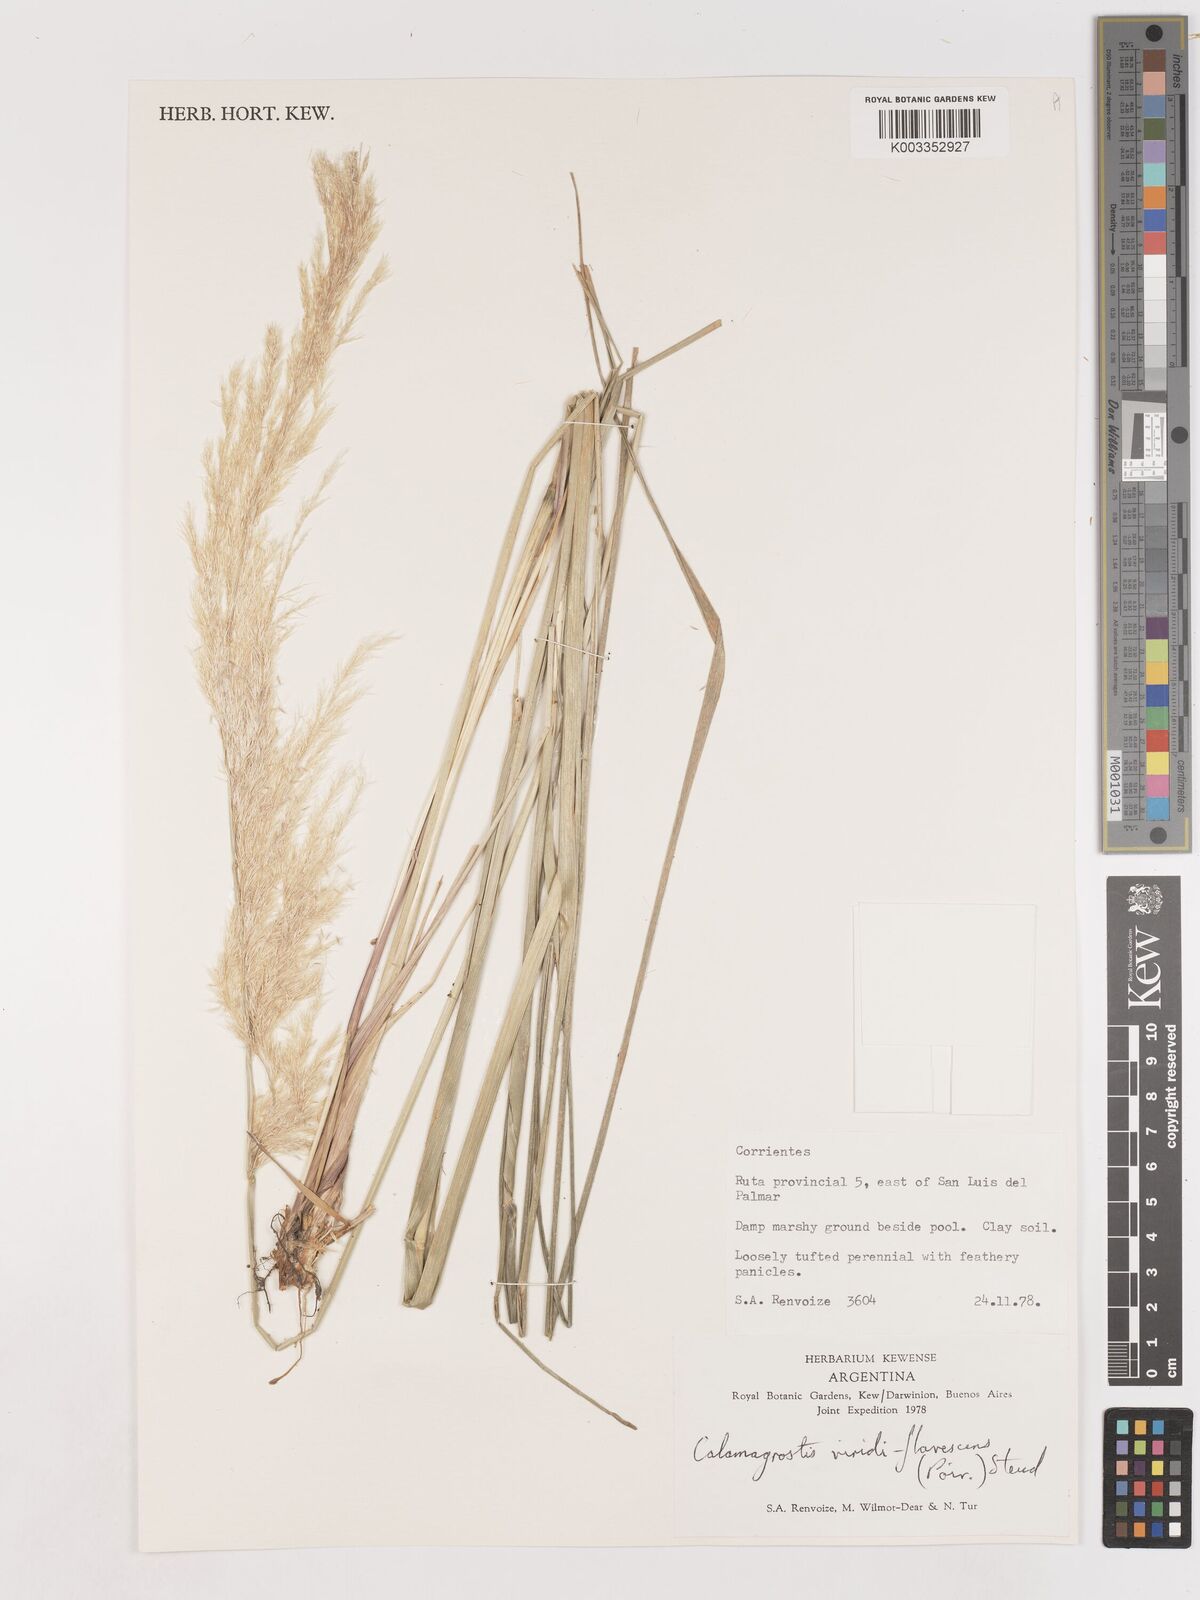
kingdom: Plantae
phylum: Tracheophyta
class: Liliopsida
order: Poales
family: Poaceae
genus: Cinnagrostis
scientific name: Cinnagrostis viridiflavescens
